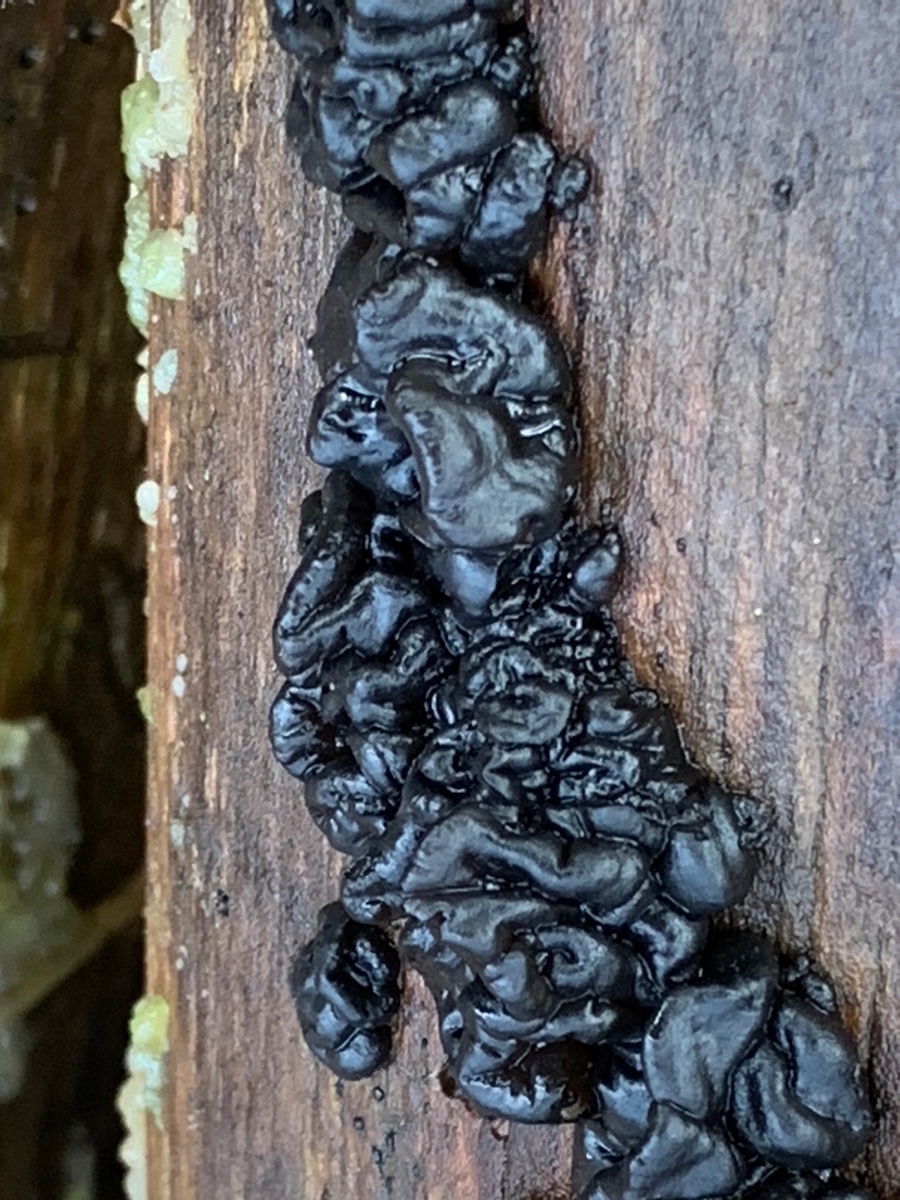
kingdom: Fungi
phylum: Basidiomycota
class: Agaricomycetes
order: Auriculariales
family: Auriculariaceae
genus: Exidia
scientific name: Exidia nigricans
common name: almindelig bævretop
